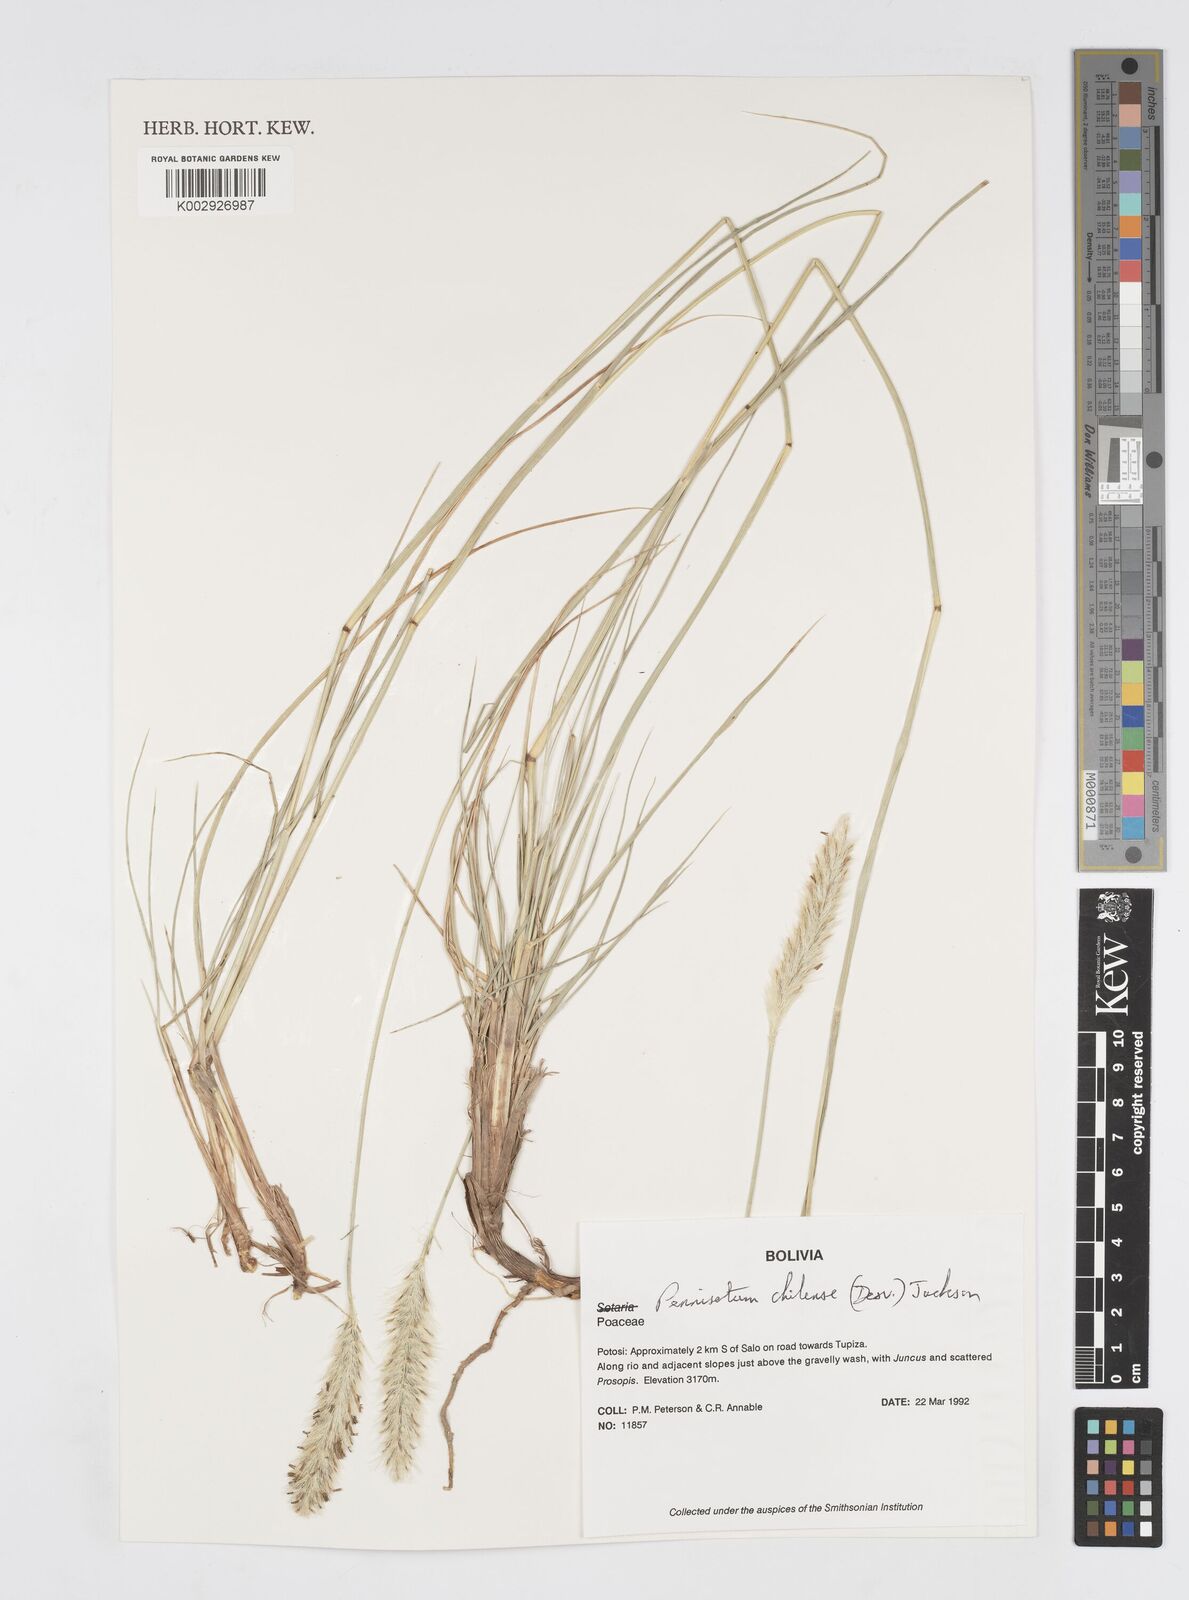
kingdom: Plantae
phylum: Tracheophyta
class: Liliopsida
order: Poales
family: Poaceae
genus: Cenchrus
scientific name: Cenchrus chilensis
